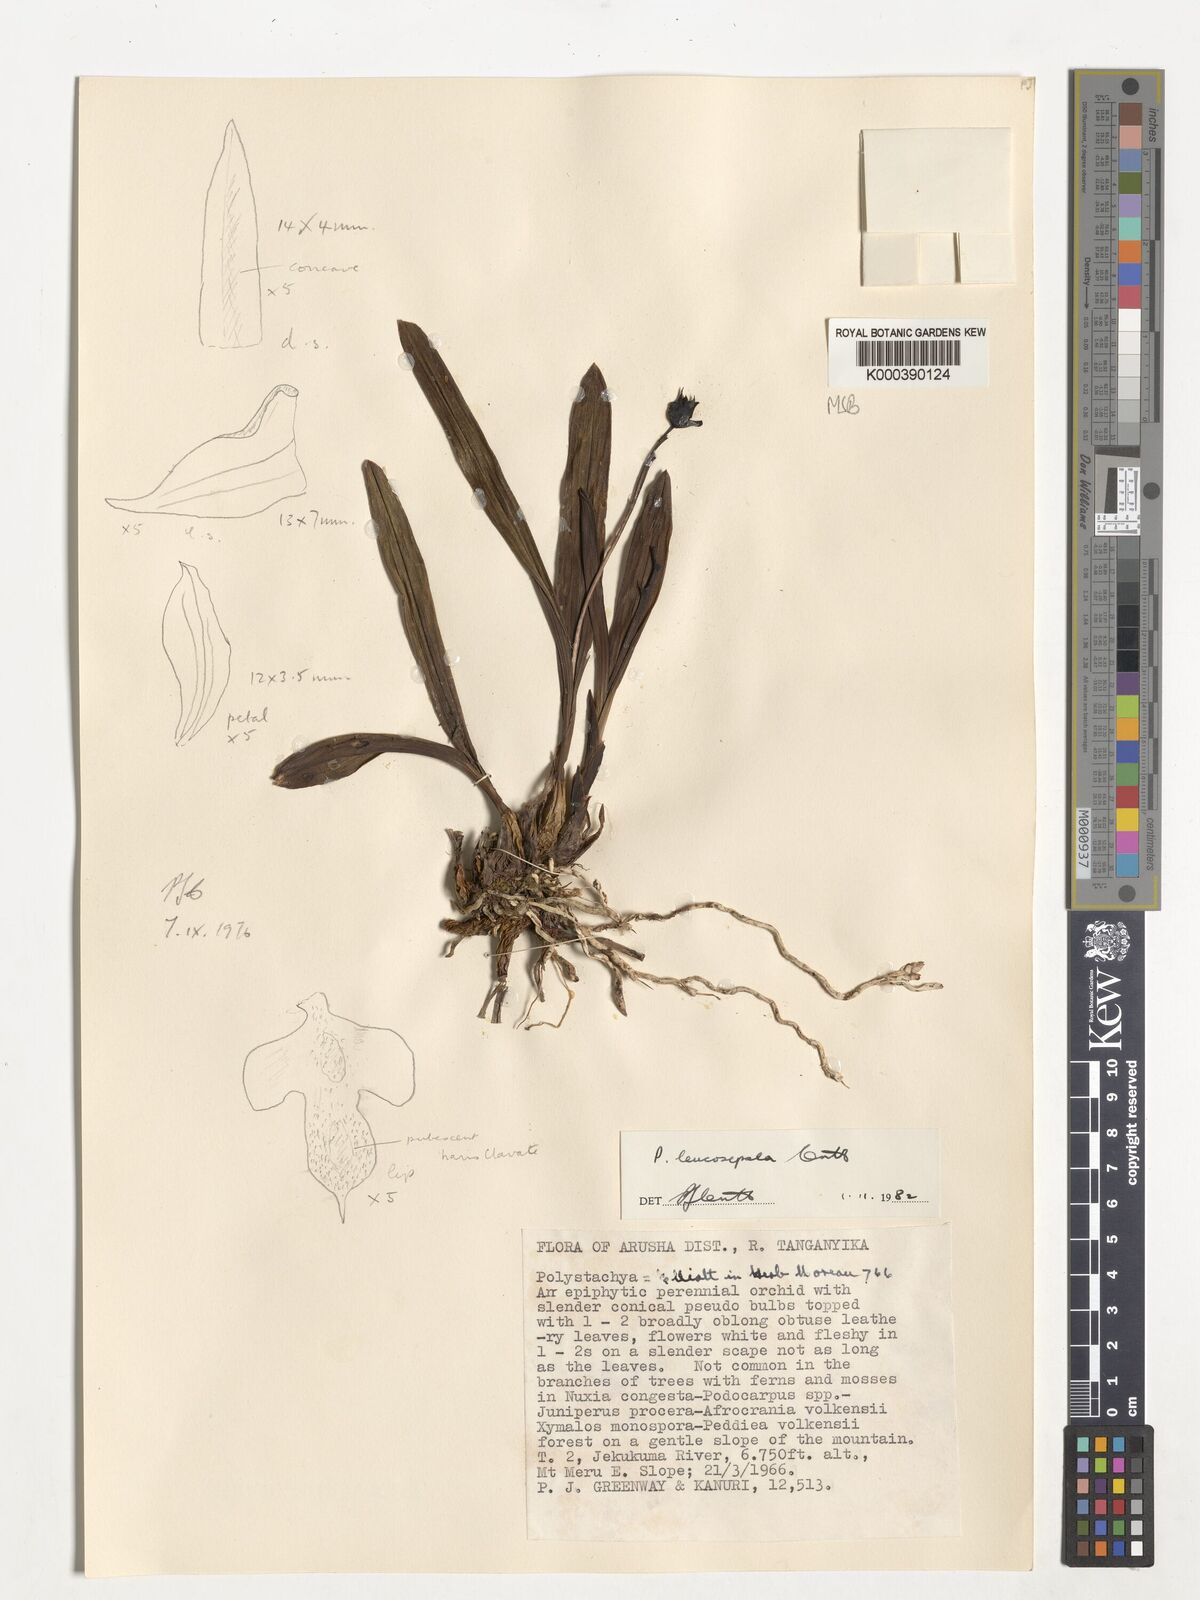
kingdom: Plantae
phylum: Tracheophyta
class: Liliopsida
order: Asparagales
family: Orchidaceae
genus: Polystachya
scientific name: Polystachya leucosepala
